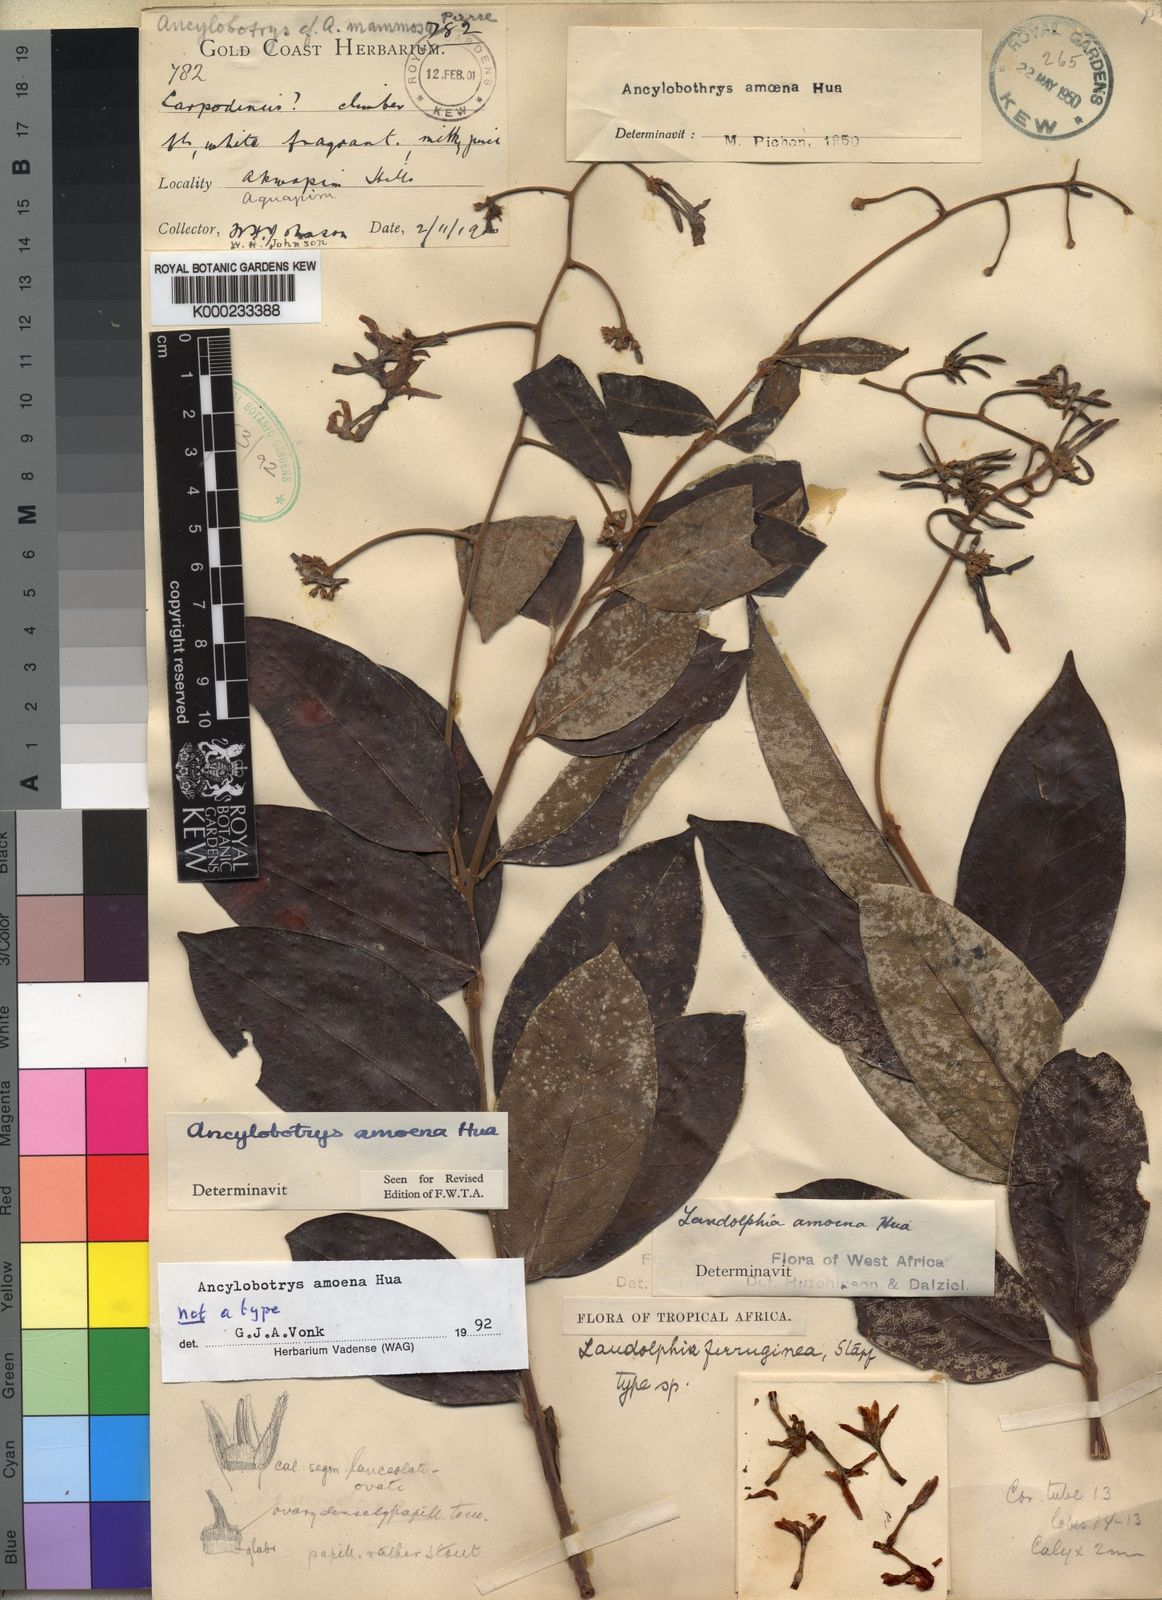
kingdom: Plantae
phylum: Tracheophyta
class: Magnoliopsida
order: Gentianales
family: Apocynaceae
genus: Ancylobothrys
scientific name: Ancylobothrys amoena
